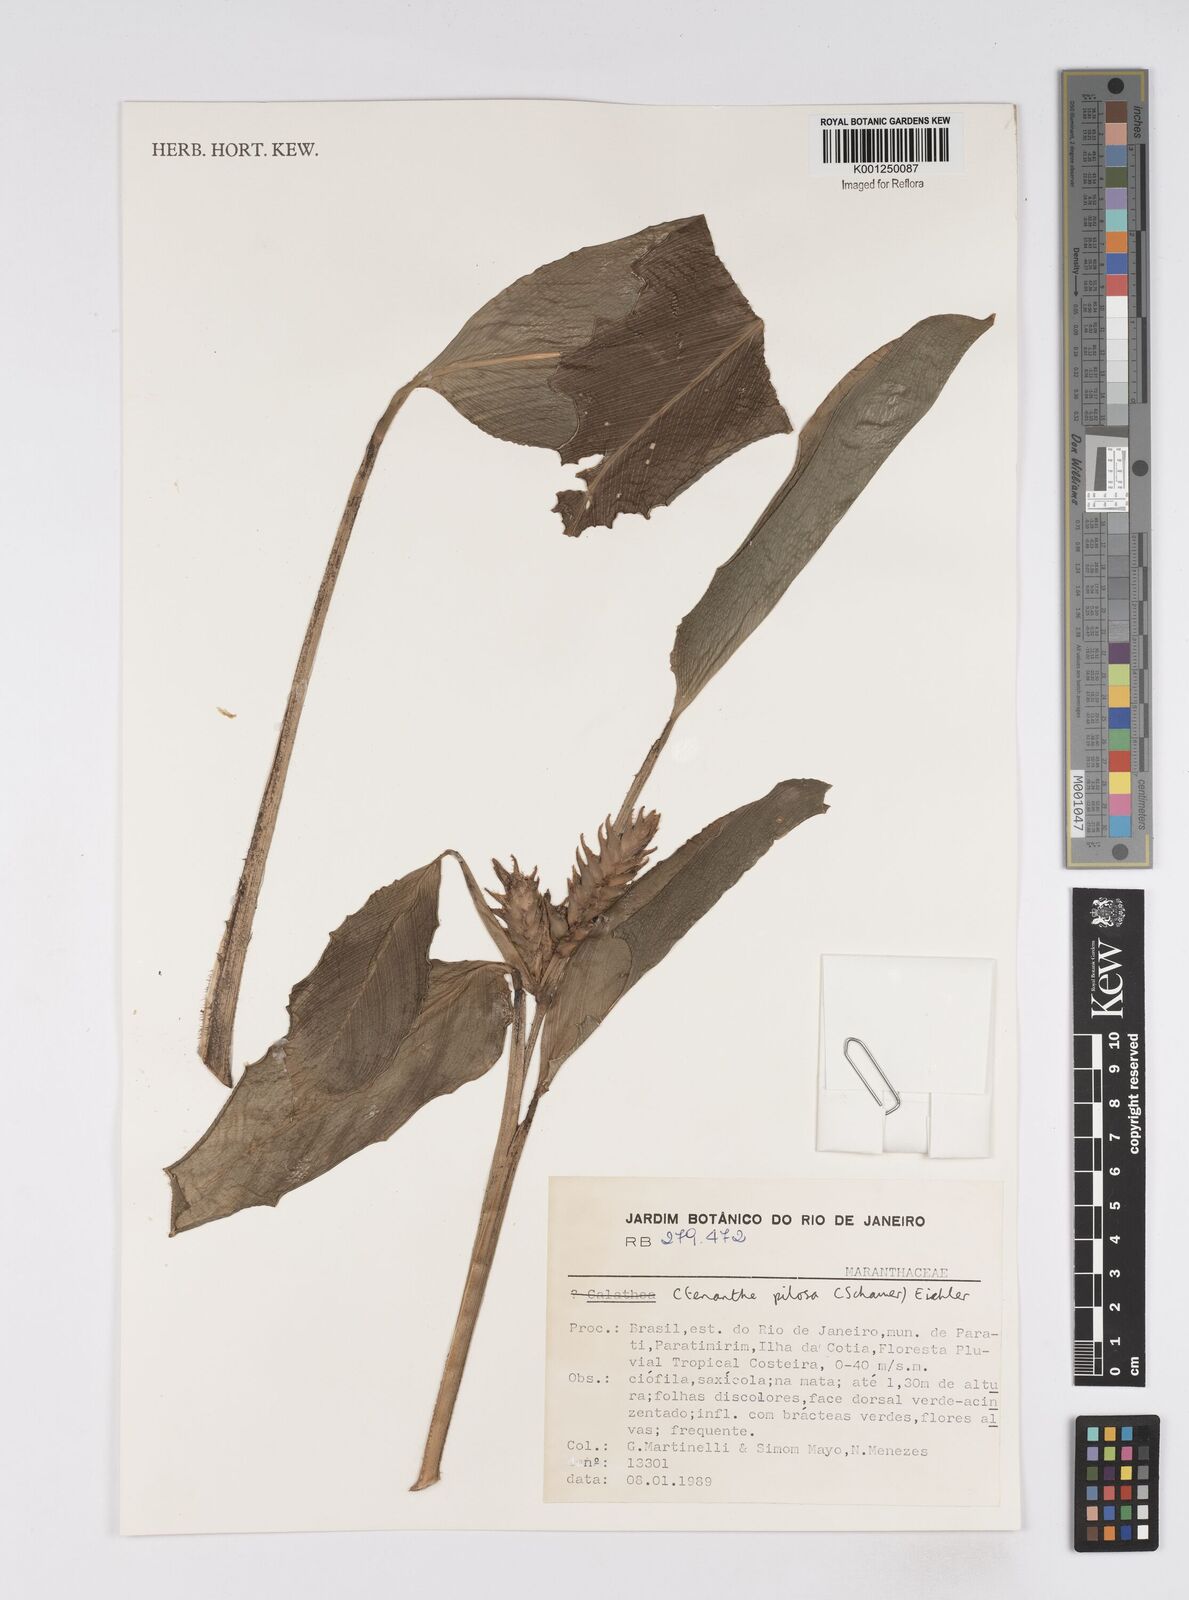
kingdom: Plantae
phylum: Tracheophyta
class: Liliopsida
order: Zingiberales
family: Marantaceae
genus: Ctenanthe
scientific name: Ctenanthe marantifolia
